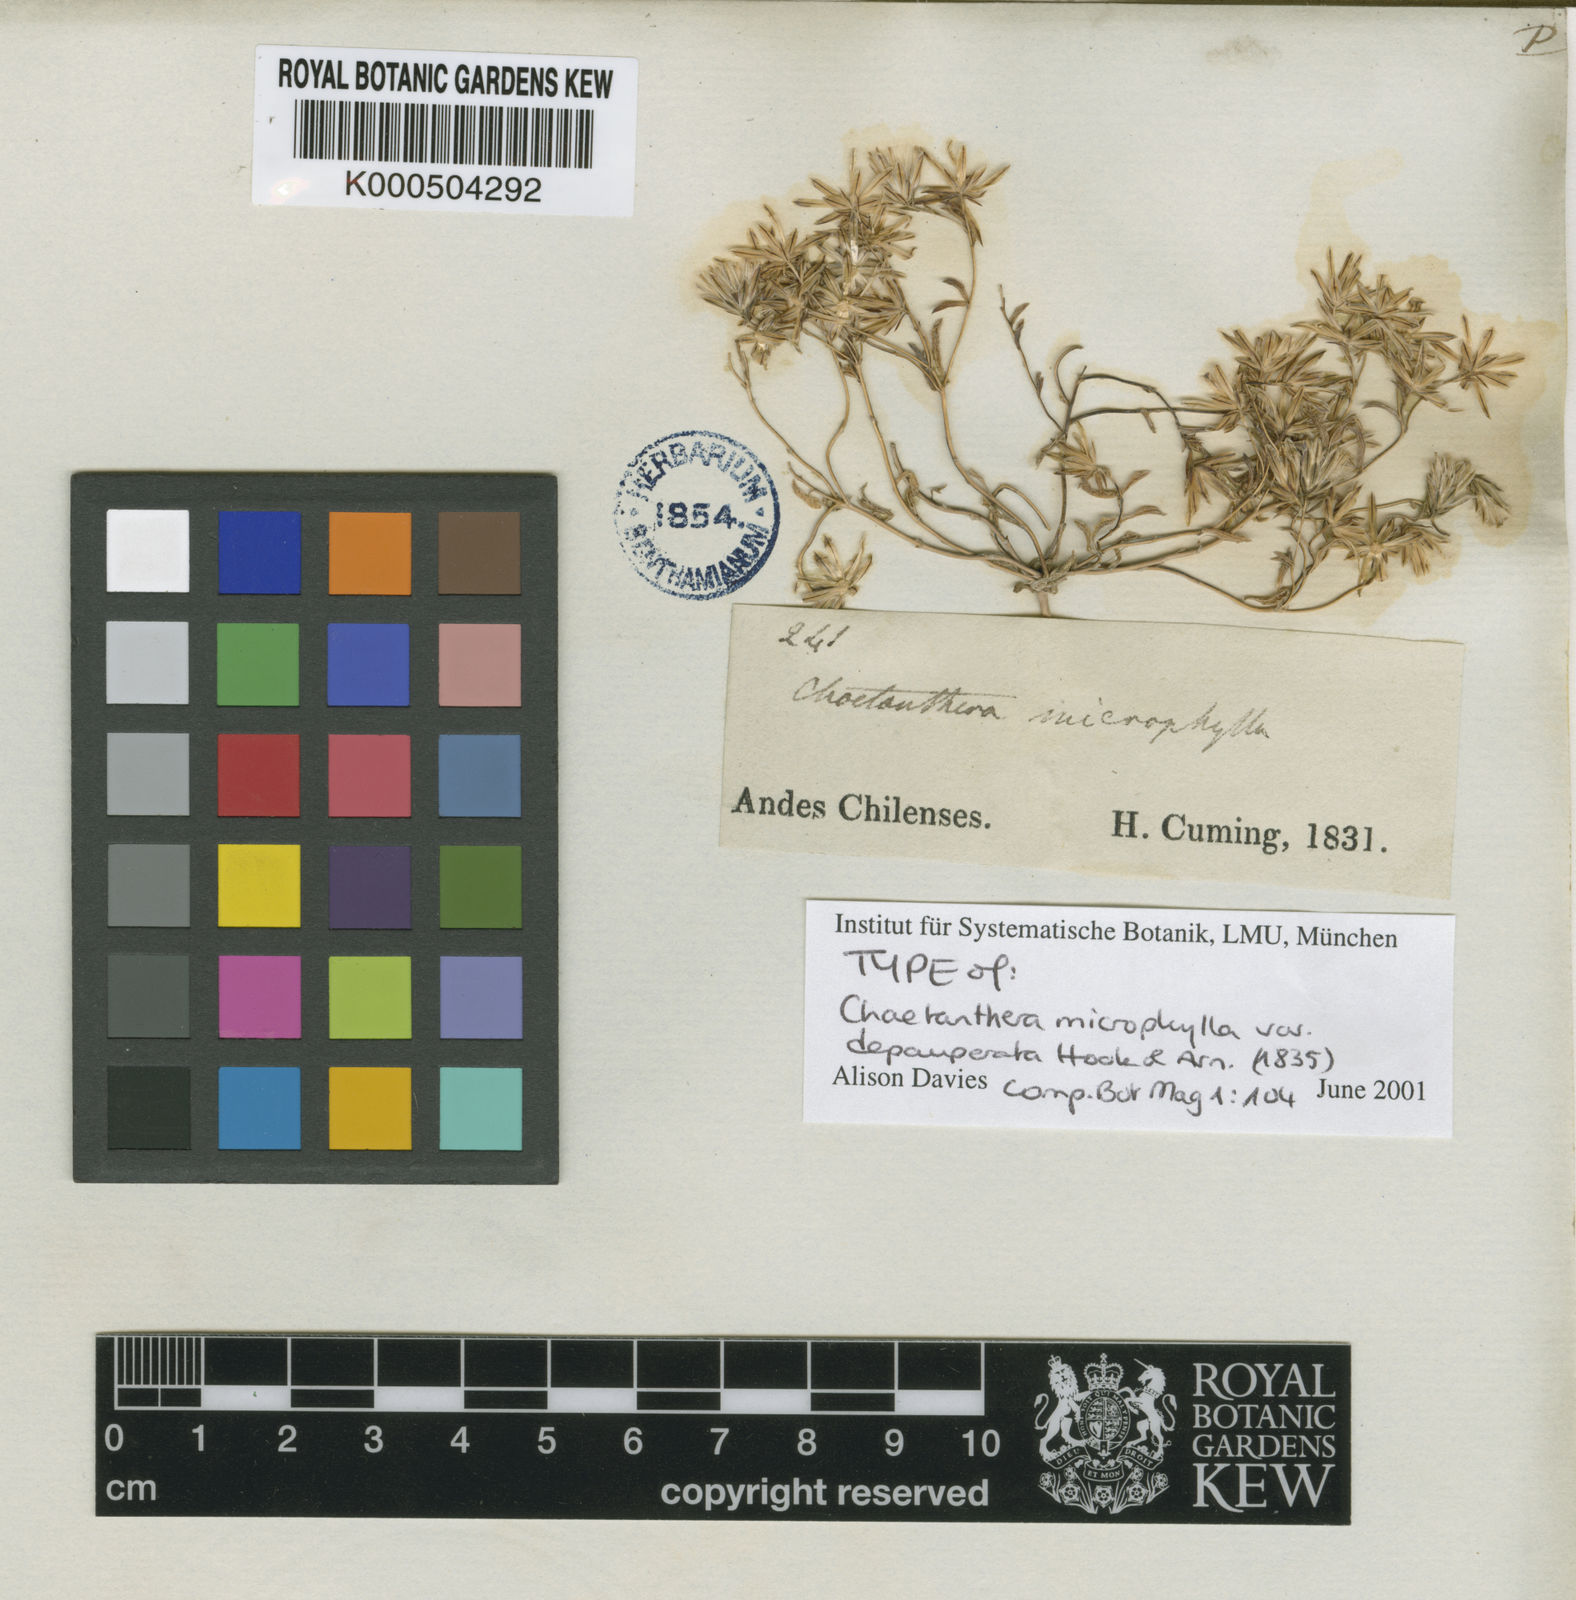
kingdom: Plantae
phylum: Tracheophyta
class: Magnoliopsida
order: Asterales
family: Asteraceae
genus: Chaetanthera
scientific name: Chaetanthera microphylla
